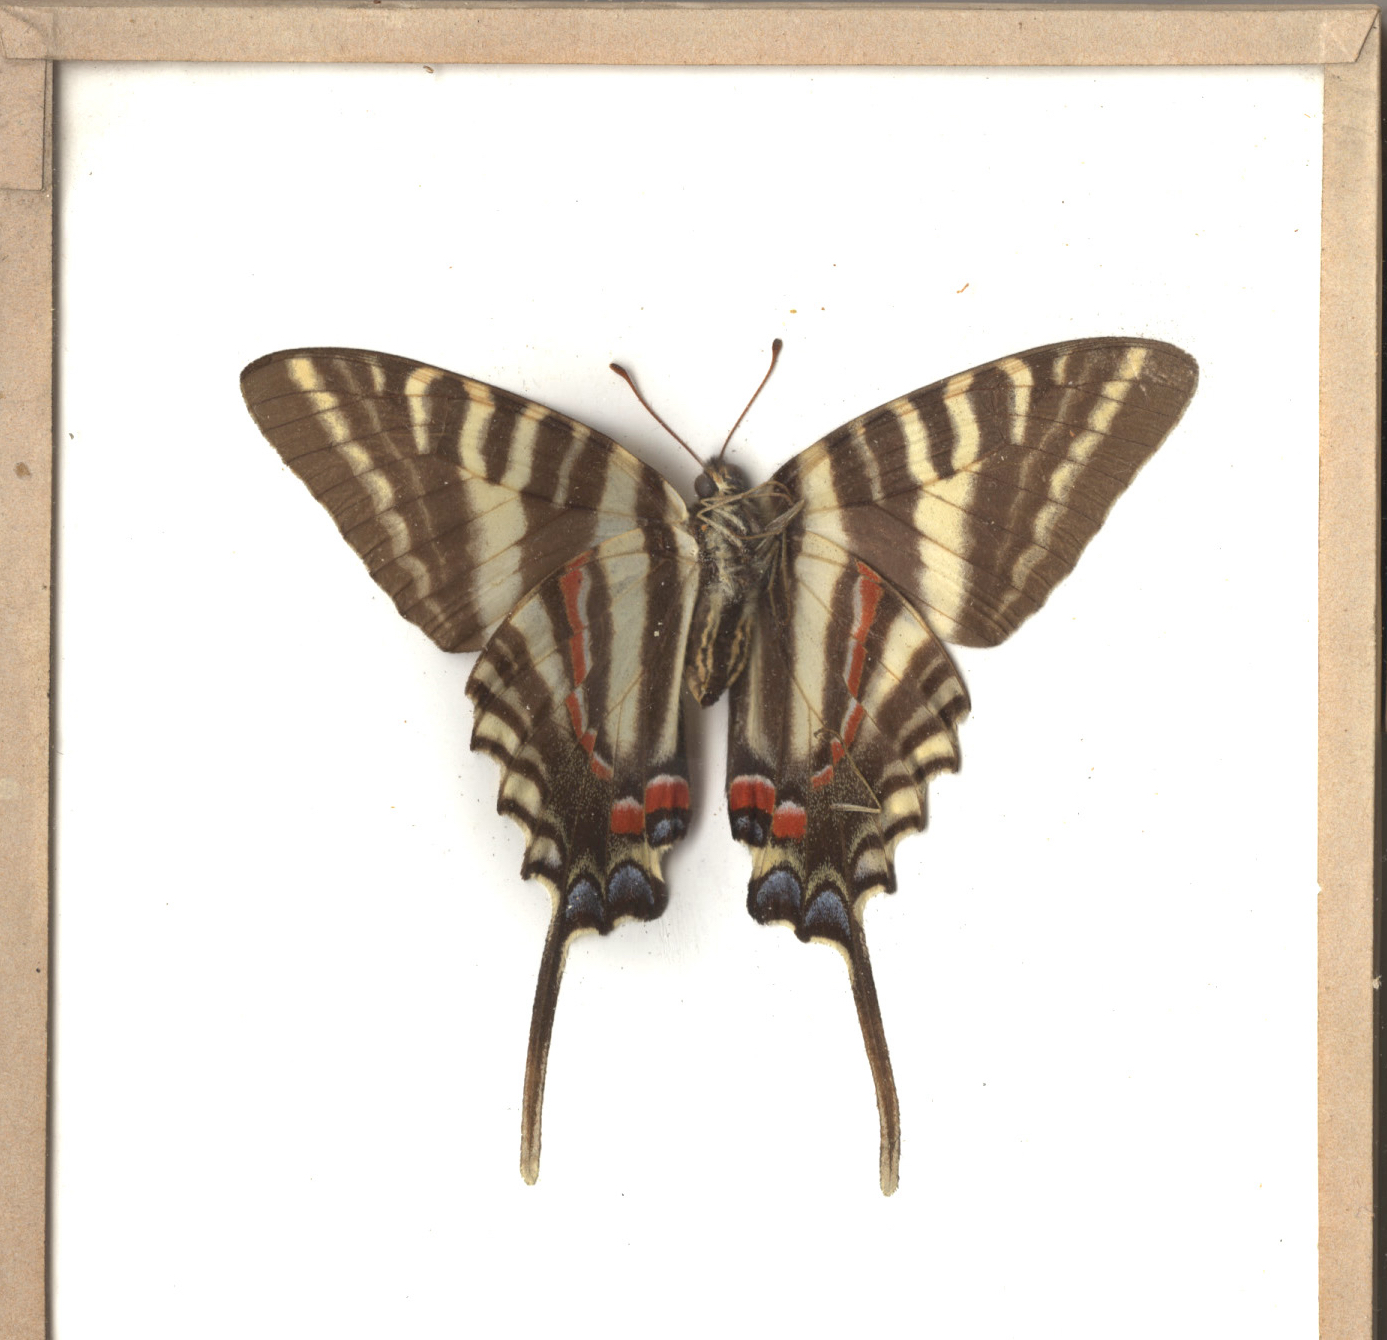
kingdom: Animalia
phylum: Arthropoda
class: Insecta
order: Lepidoptera
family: Papilionidae
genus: Protographium
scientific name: Protographium marcellus
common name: Zebra Swallowtail
